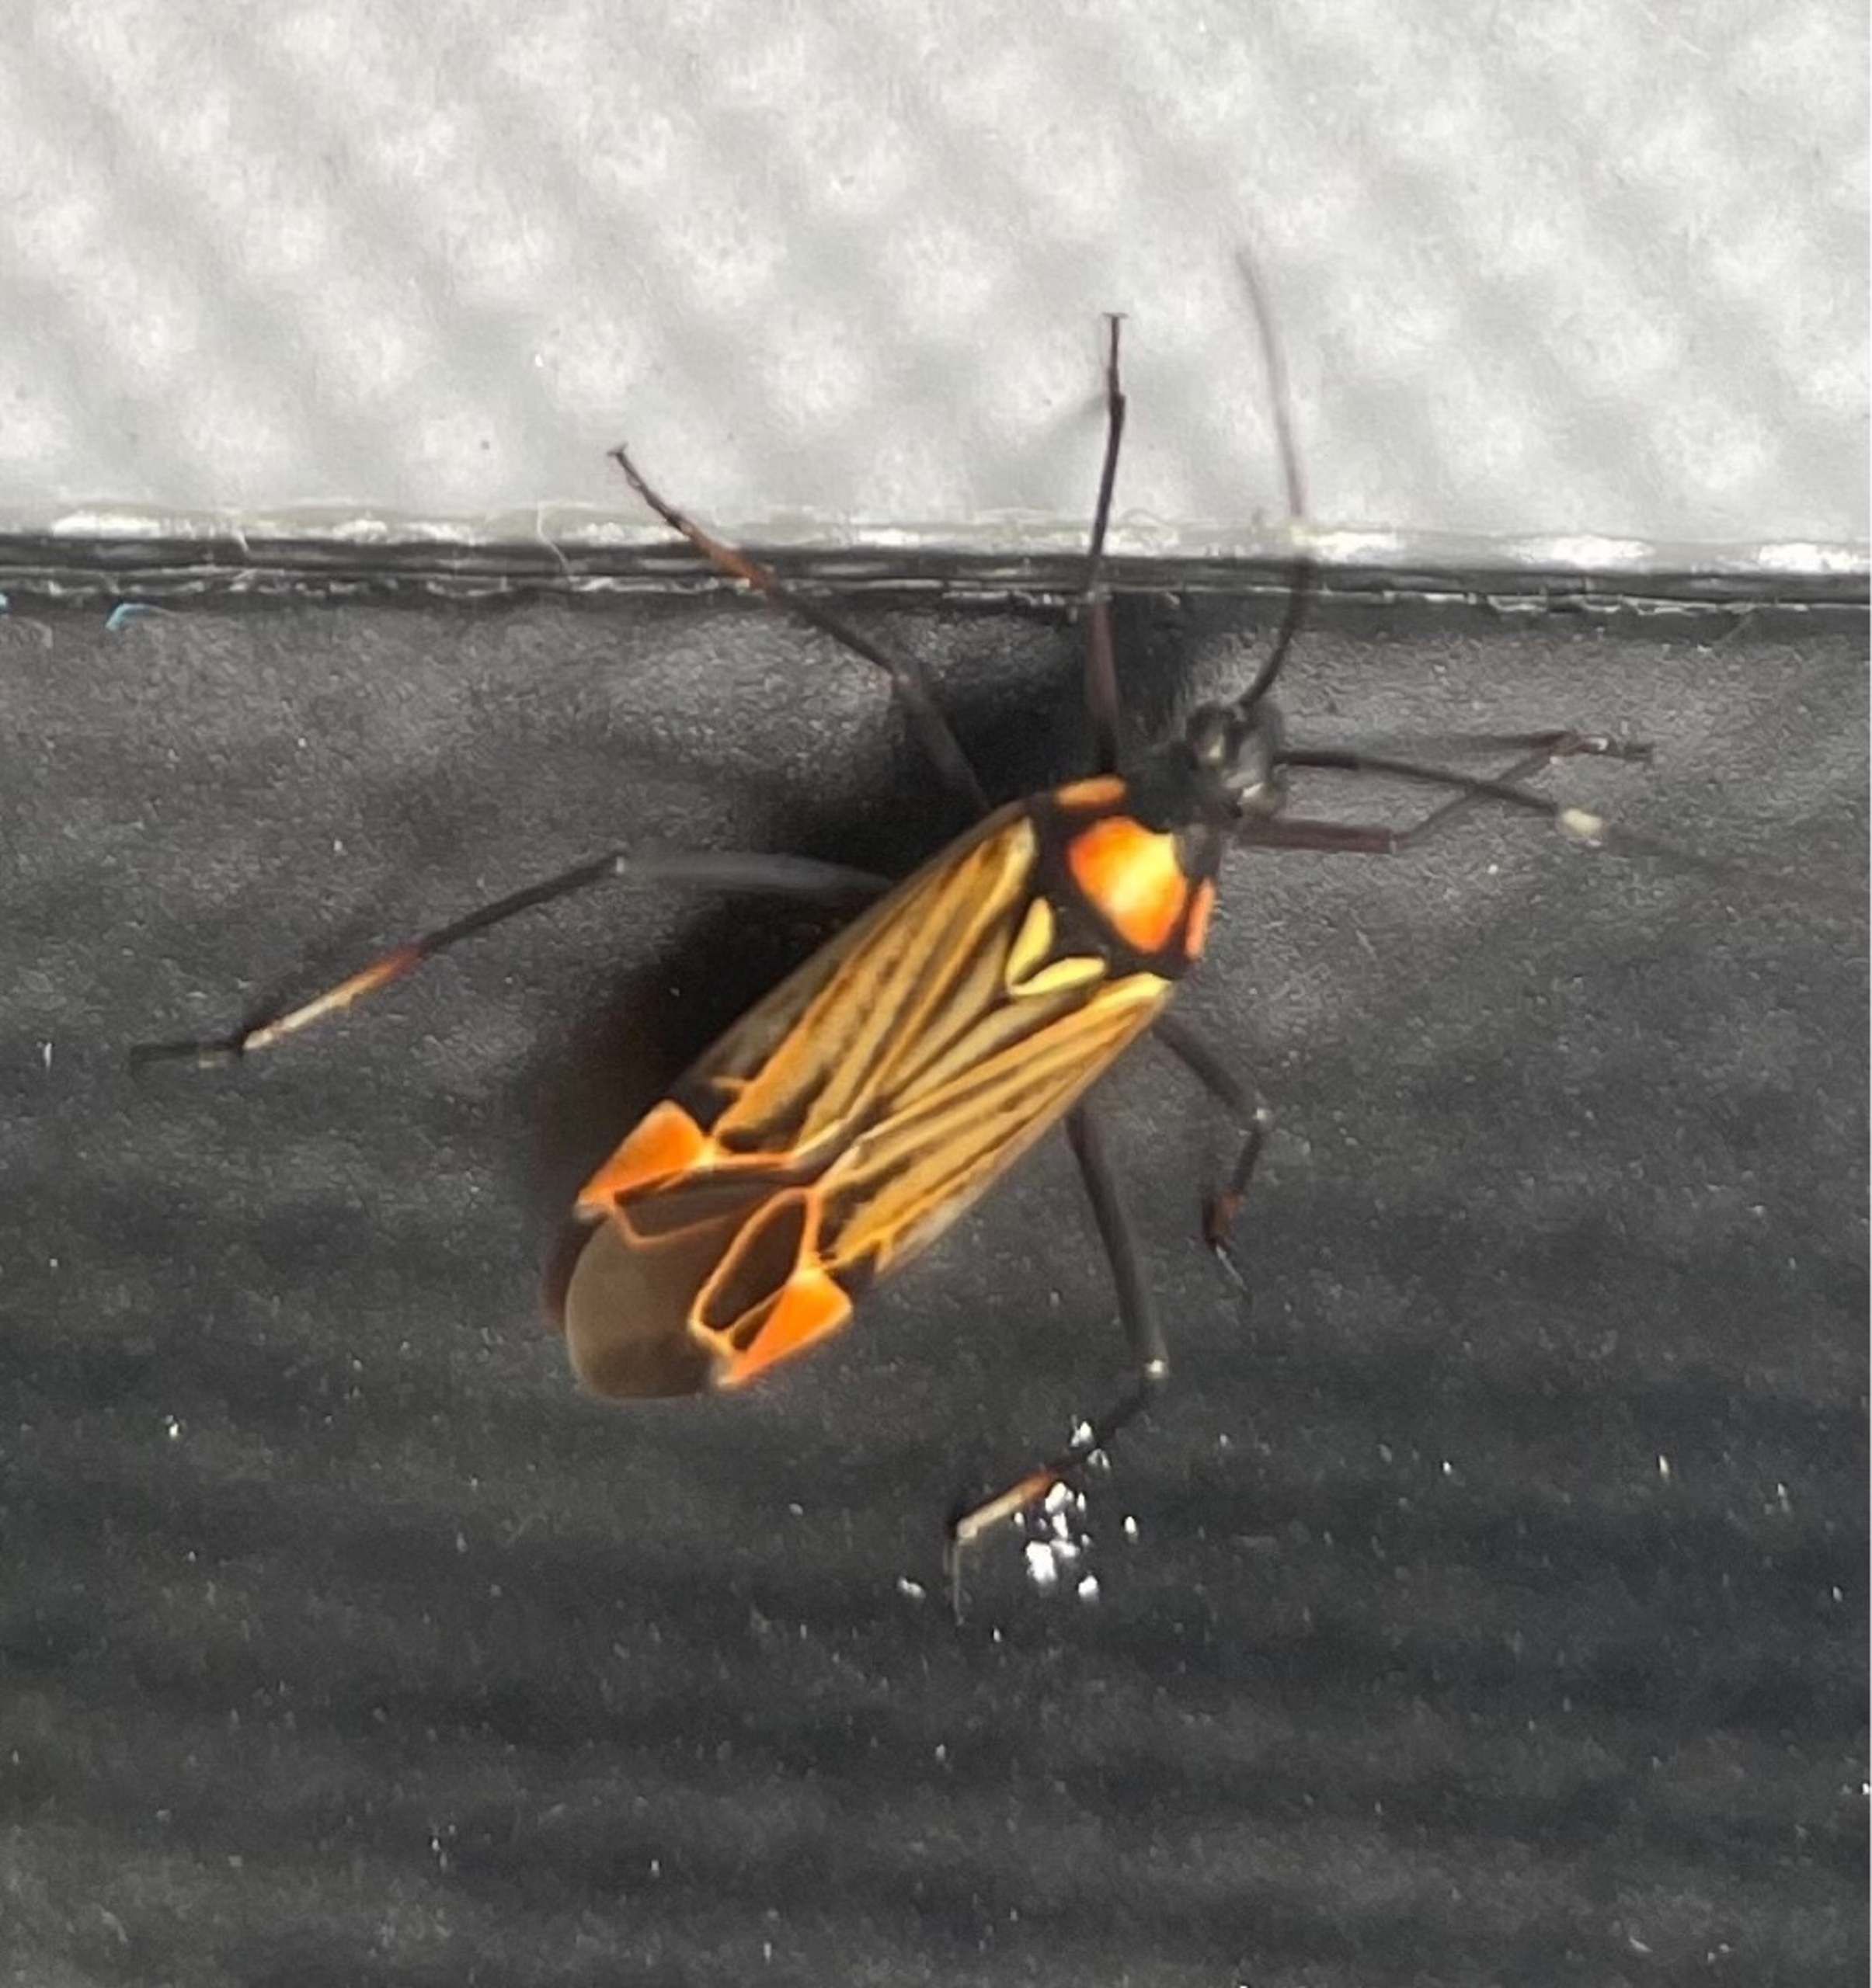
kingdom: Animalia
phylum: Arthropoda
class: Insecta
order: Hemiptera
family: Miridae
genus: Miris
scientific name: Miris striatus
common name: Gulstribet egetæge
